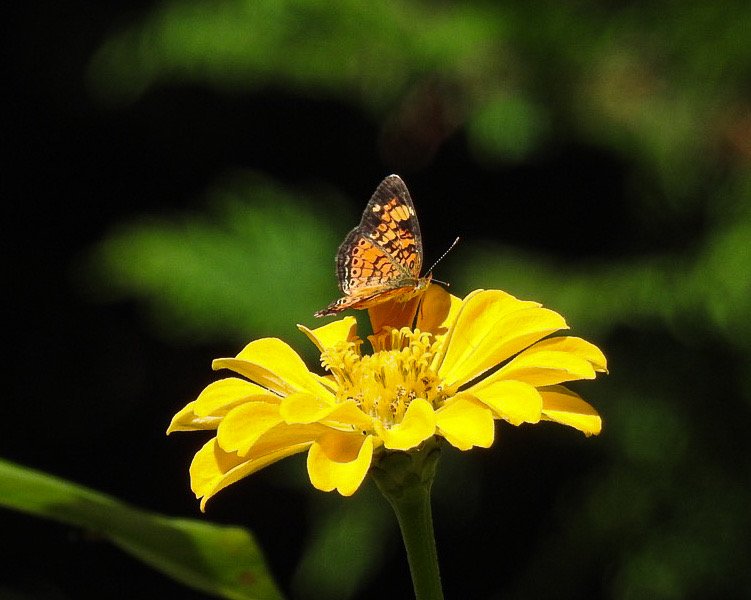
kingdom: Animalia
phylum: Arthropoda
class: Insecta
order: Lepidoptera
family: Nymphalidae
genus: Phyciodes
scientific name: Phyciodes tharos
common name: Pearl Crescent
